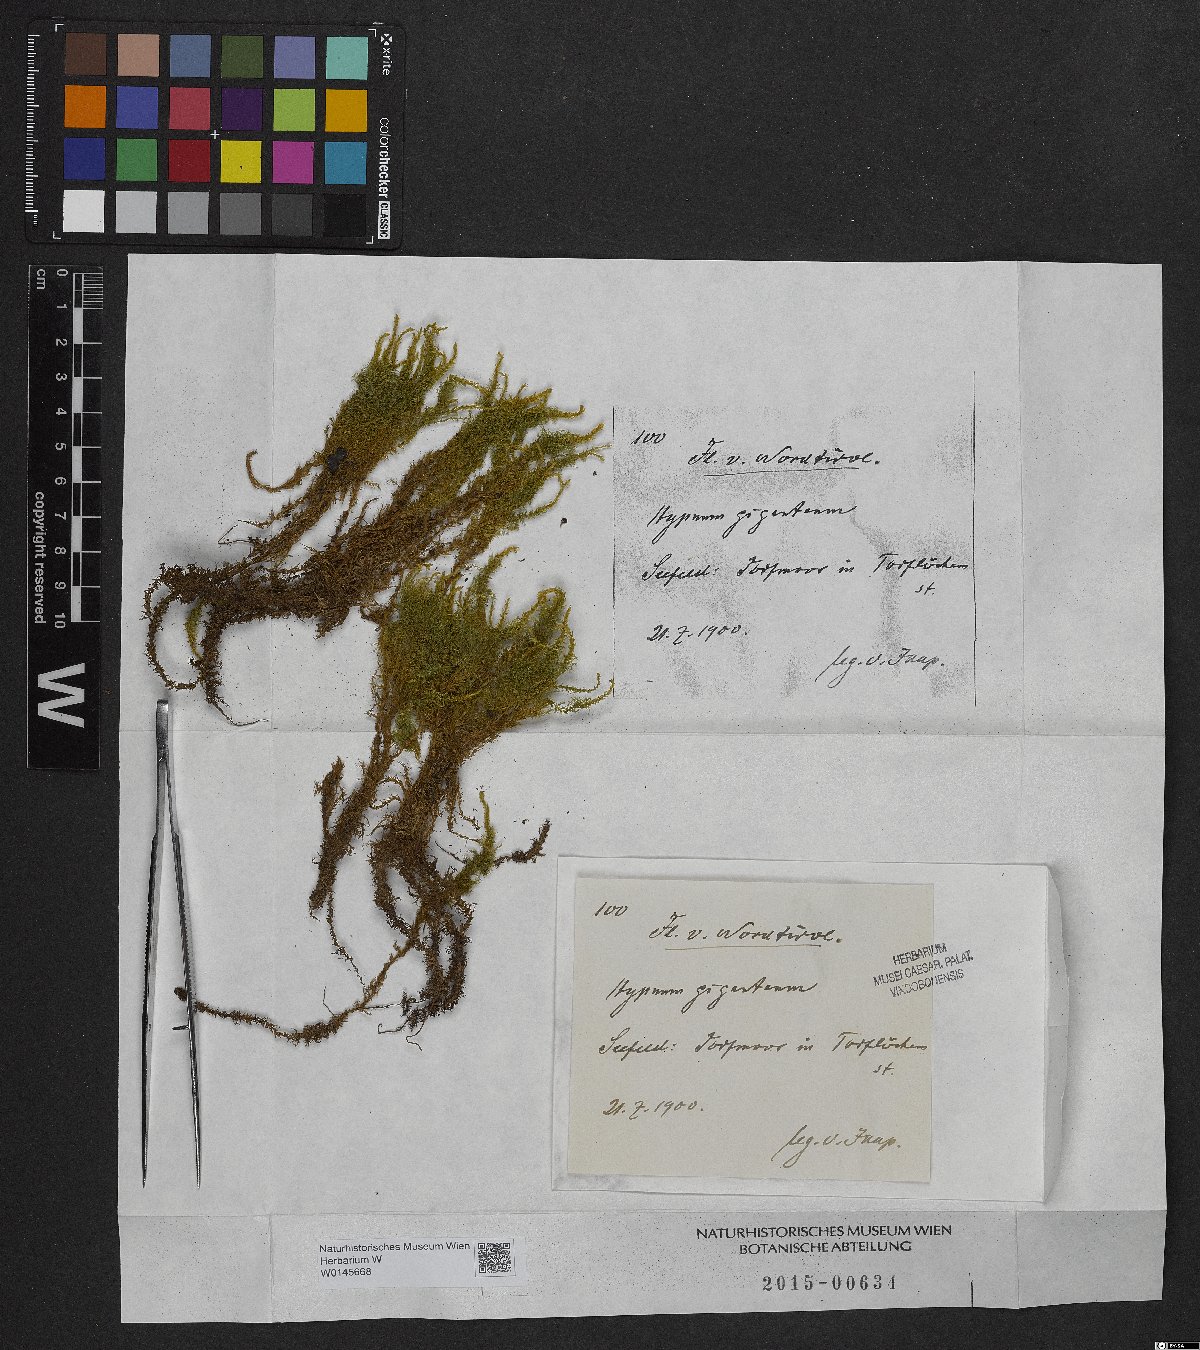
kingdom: Plantae
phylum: Bryophyta
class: Bryopsida
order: Hypnales
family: Calliergonaceae
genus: Calliergon
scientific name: Calliergon giganteum
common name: Giant spear moss
